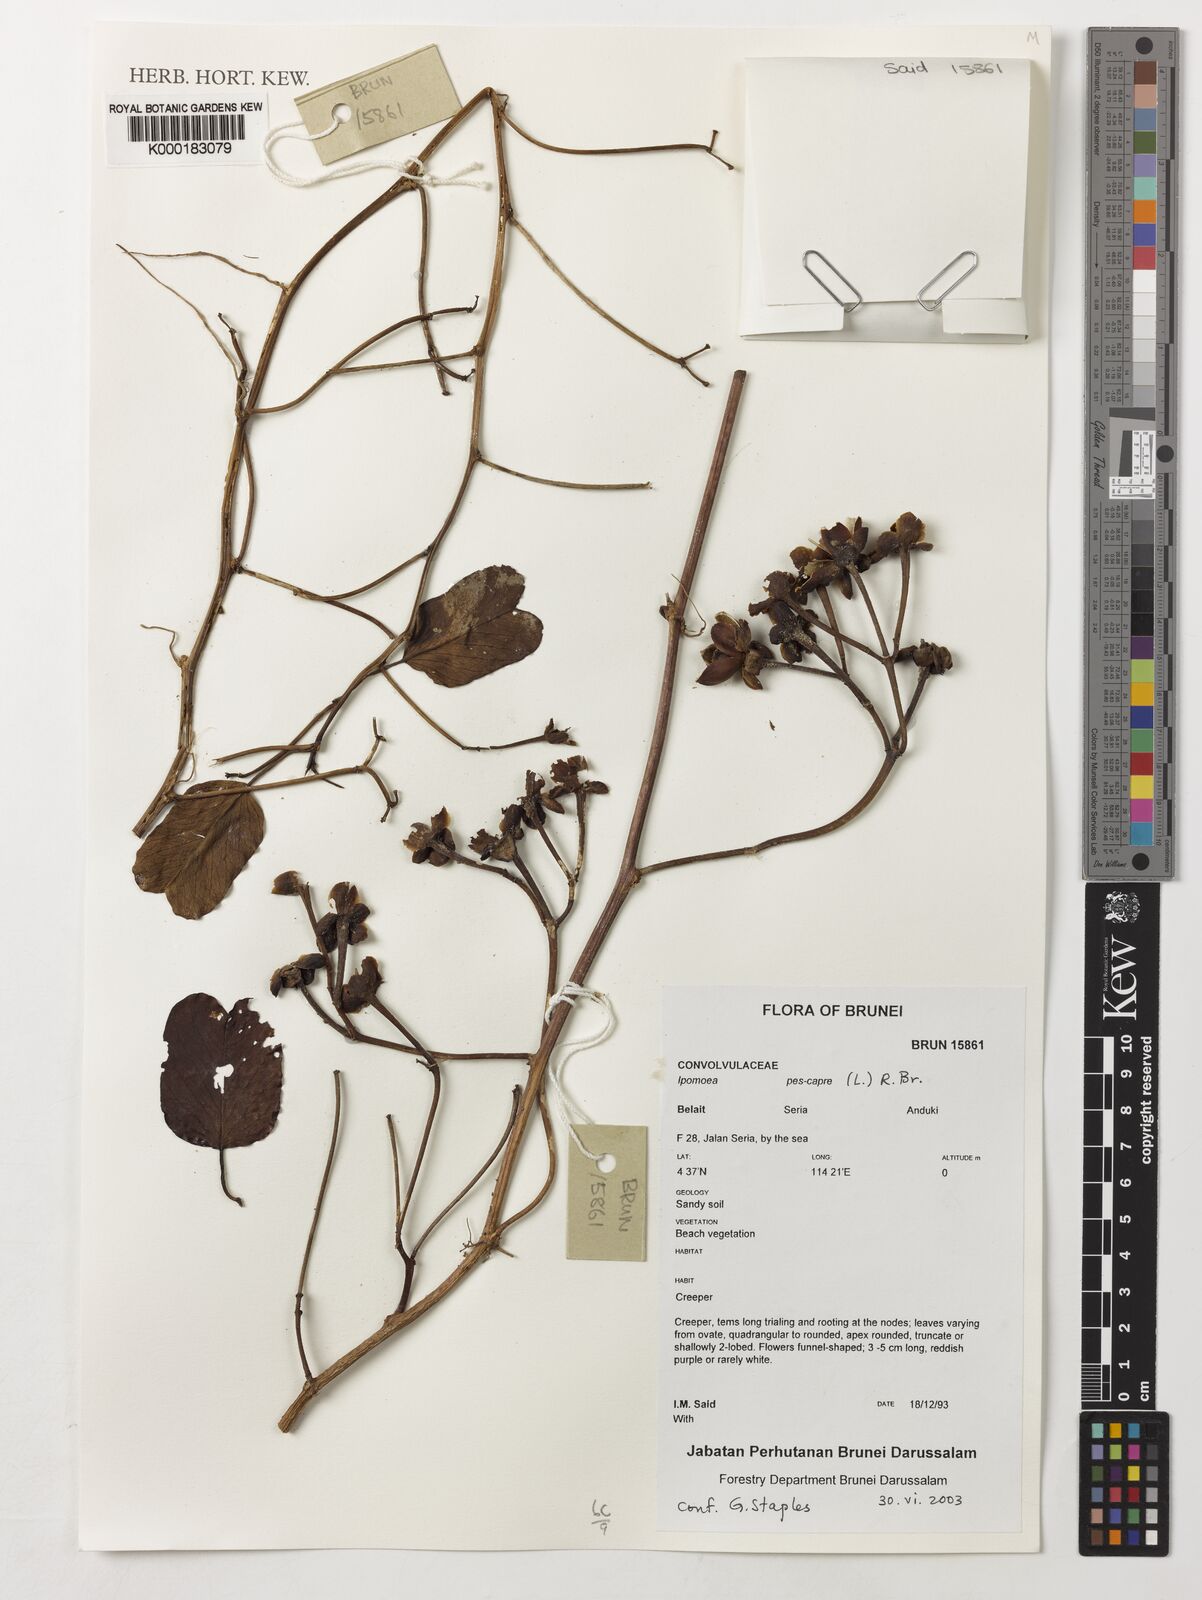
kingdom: Plantae
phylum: Tracheophyta
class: Magnoliopsida
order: Solanales
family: Convolvulaceae
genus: Ipomoea
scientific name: Ipomoea pes-caprae
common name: Beach morning glory
